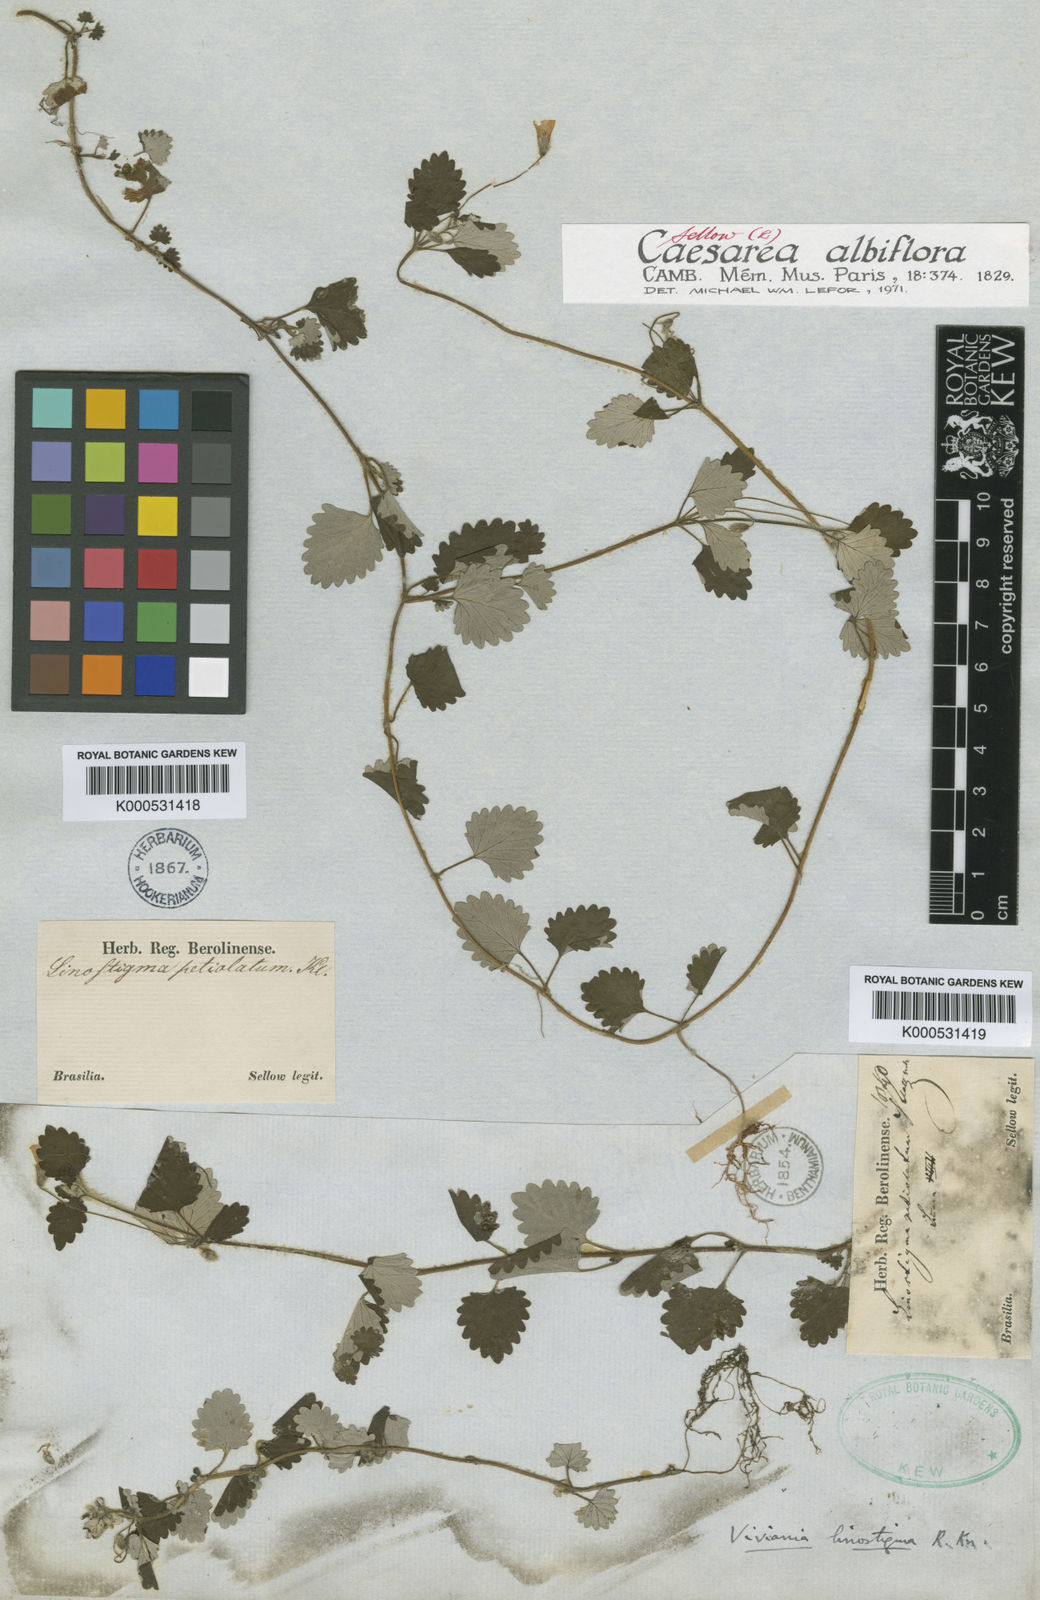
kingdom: Plantae
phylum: Tracheophyta
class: Magnoliopsida
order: Geraniales
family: Vivianiaceae
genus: Viviania
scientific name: Viviania albiflora
